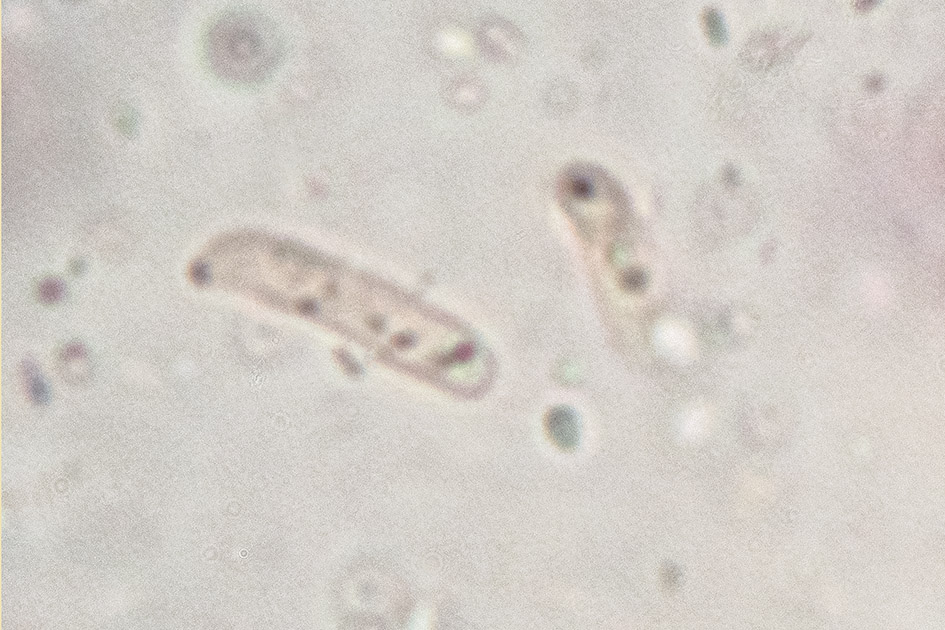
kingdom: Fungi
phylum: Basidiomycota
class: Agaricomycetes
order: Hymenochaetales
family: Hymenochaetaceae
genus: Tubulicrinis
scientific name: Tubulicrinis angustus
